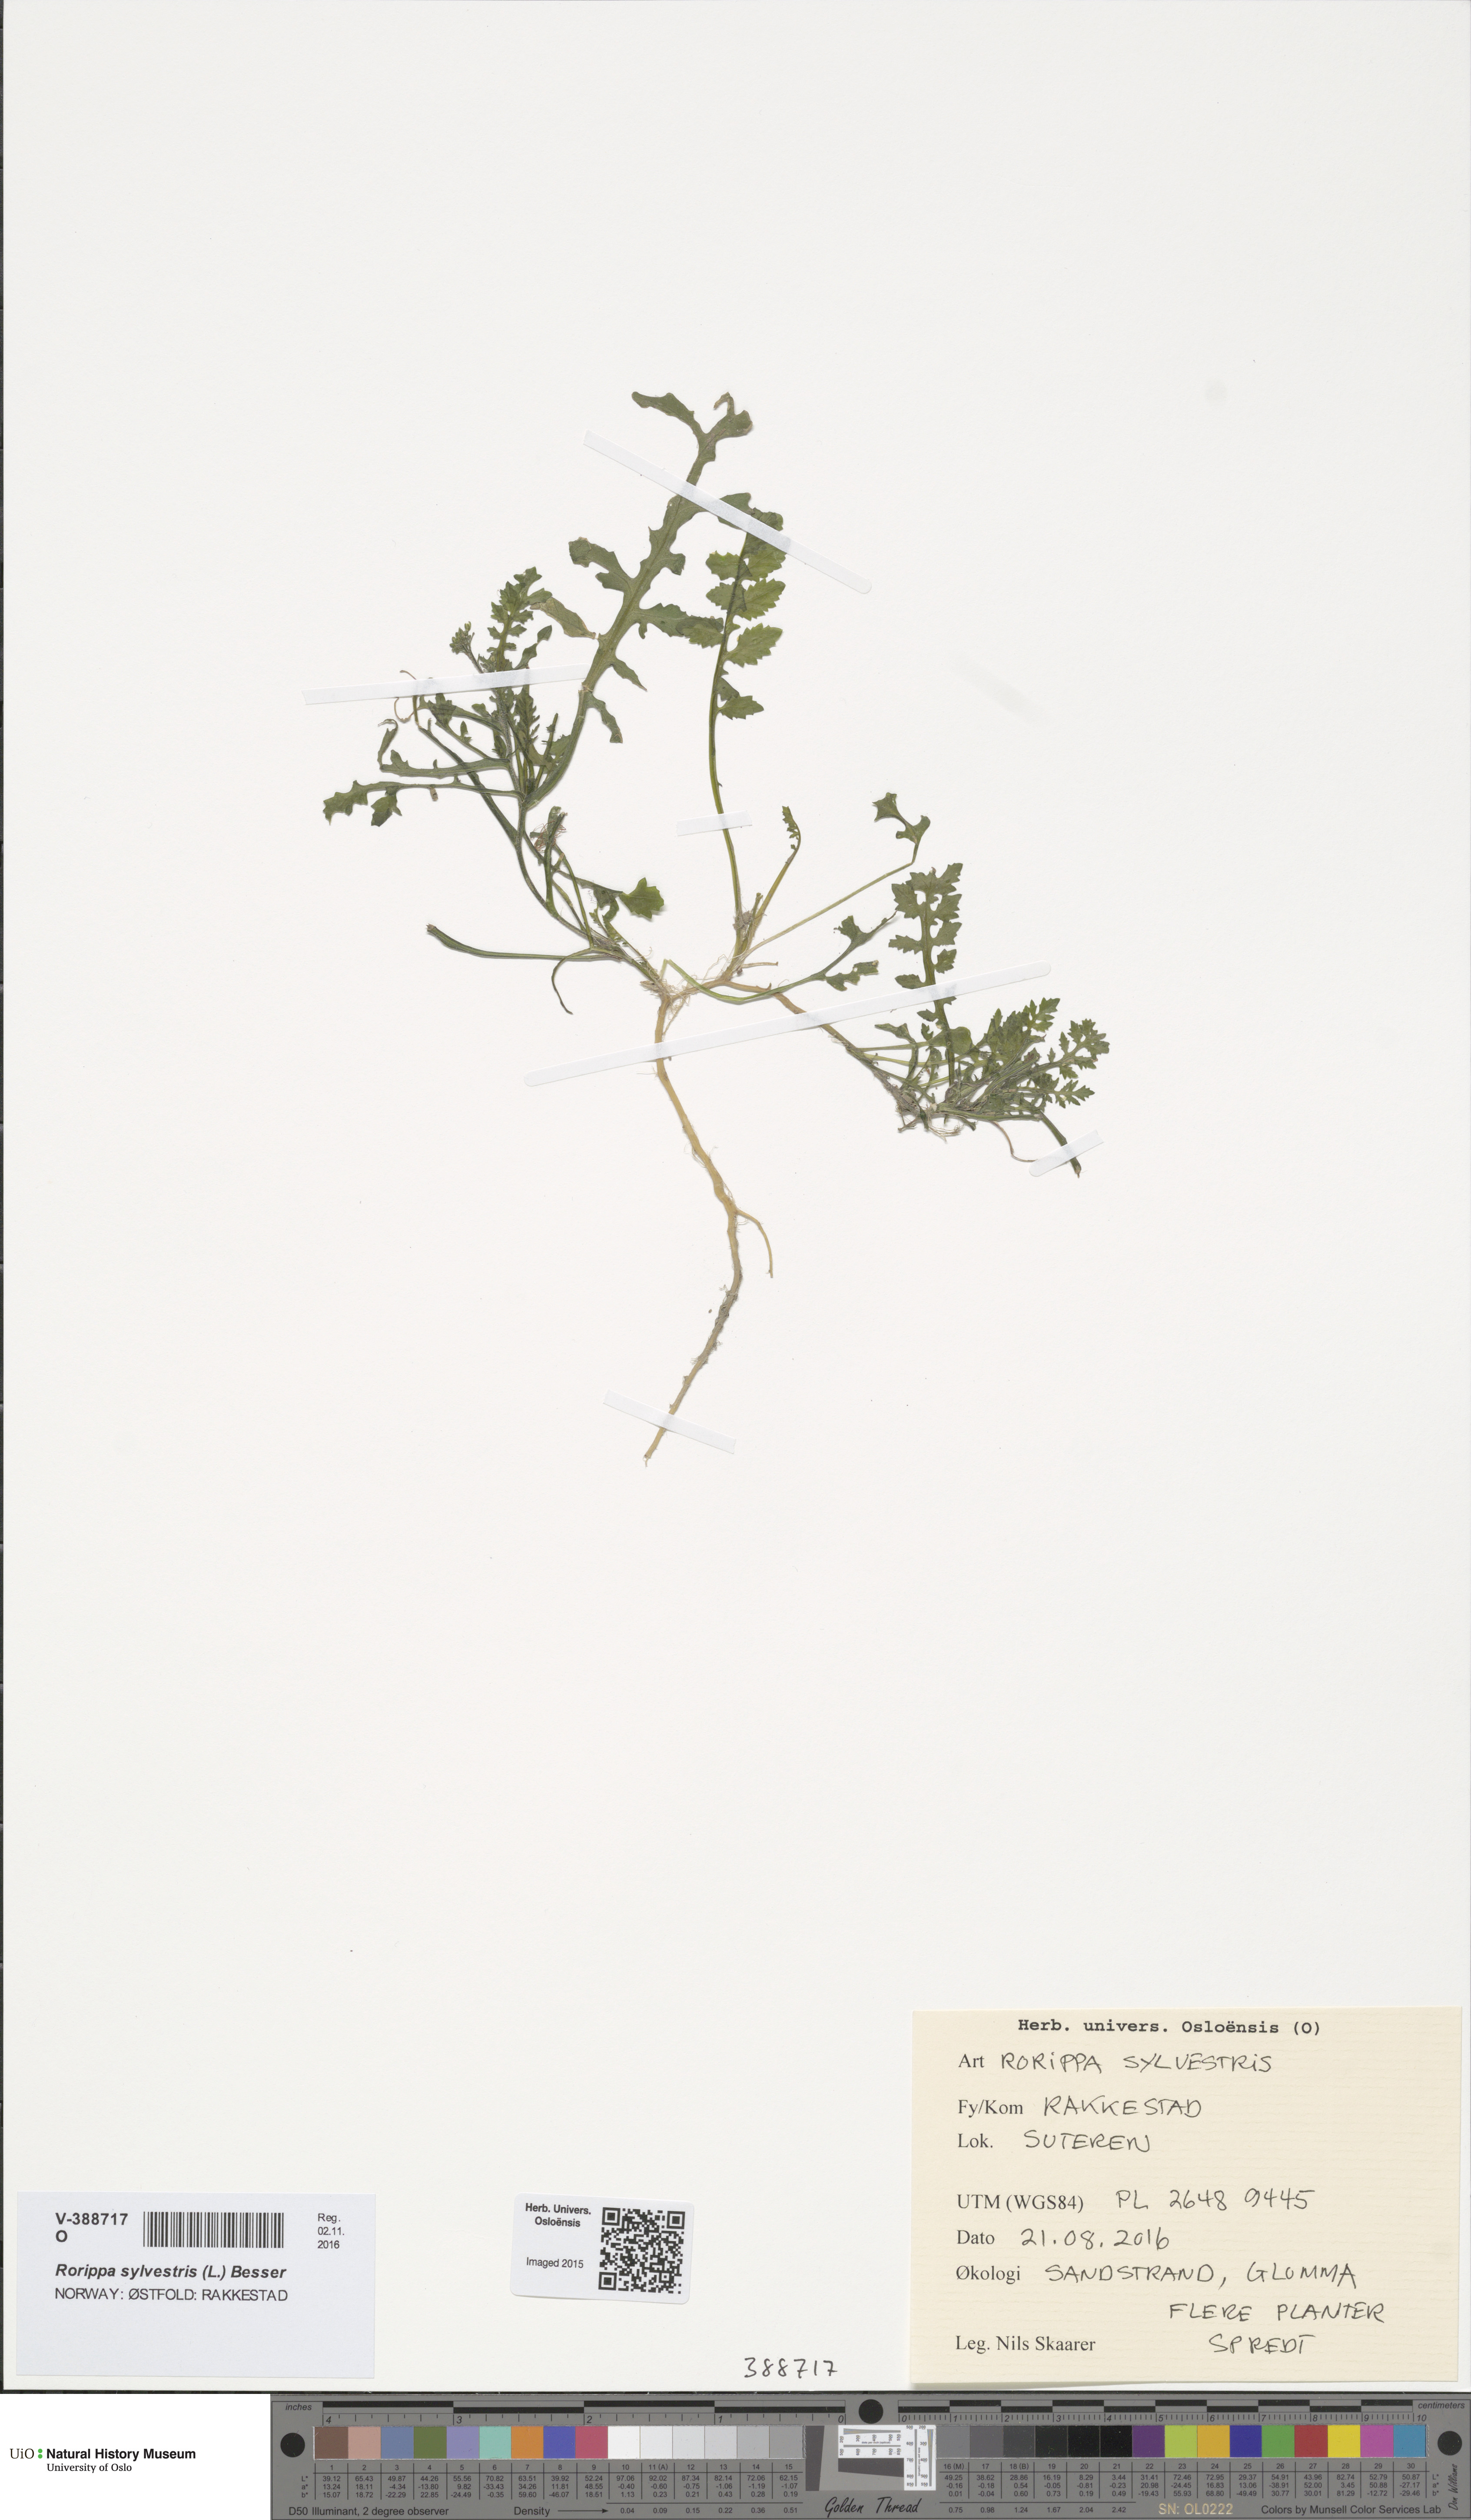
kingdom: Plantae
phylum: Tracheophyta
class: Magnoliopsida
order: Brassicales
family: Brassicaceae
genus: Rorippa
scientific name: Rorippa sylvestris
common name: Creeping yellowcress
